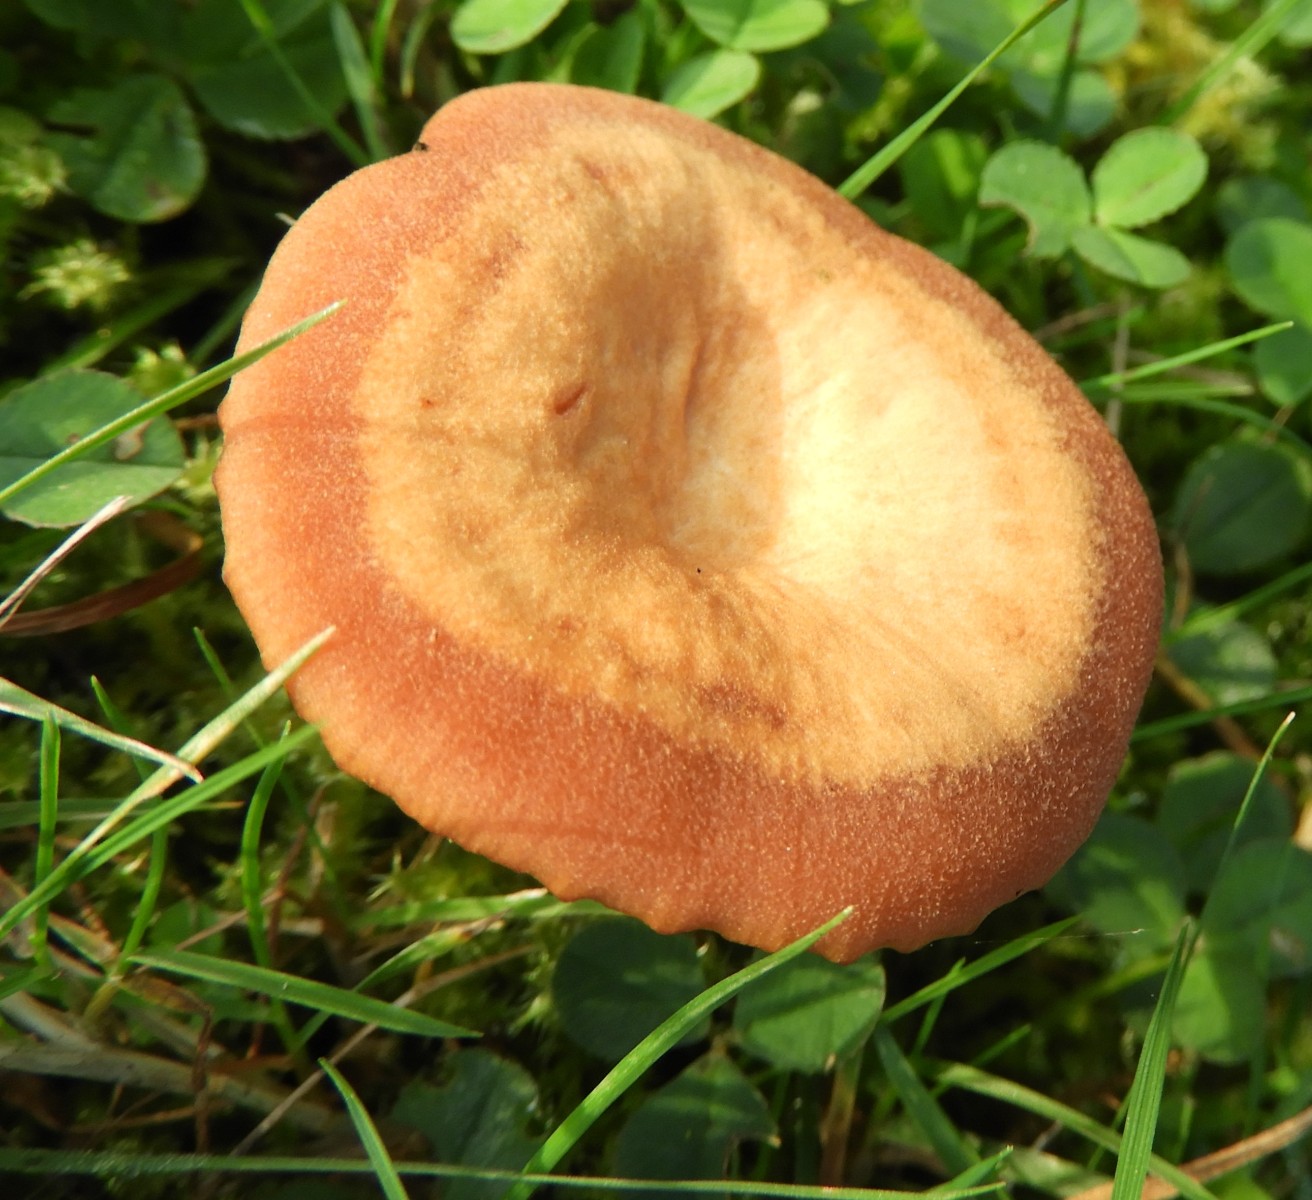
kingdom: Fungi
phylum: Basidiomycota
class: Agaricomycetes
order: Agaricales
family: Hydnangiaceae
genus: Laccaria
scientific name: Laccaria laccata
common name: rød ametysthat
